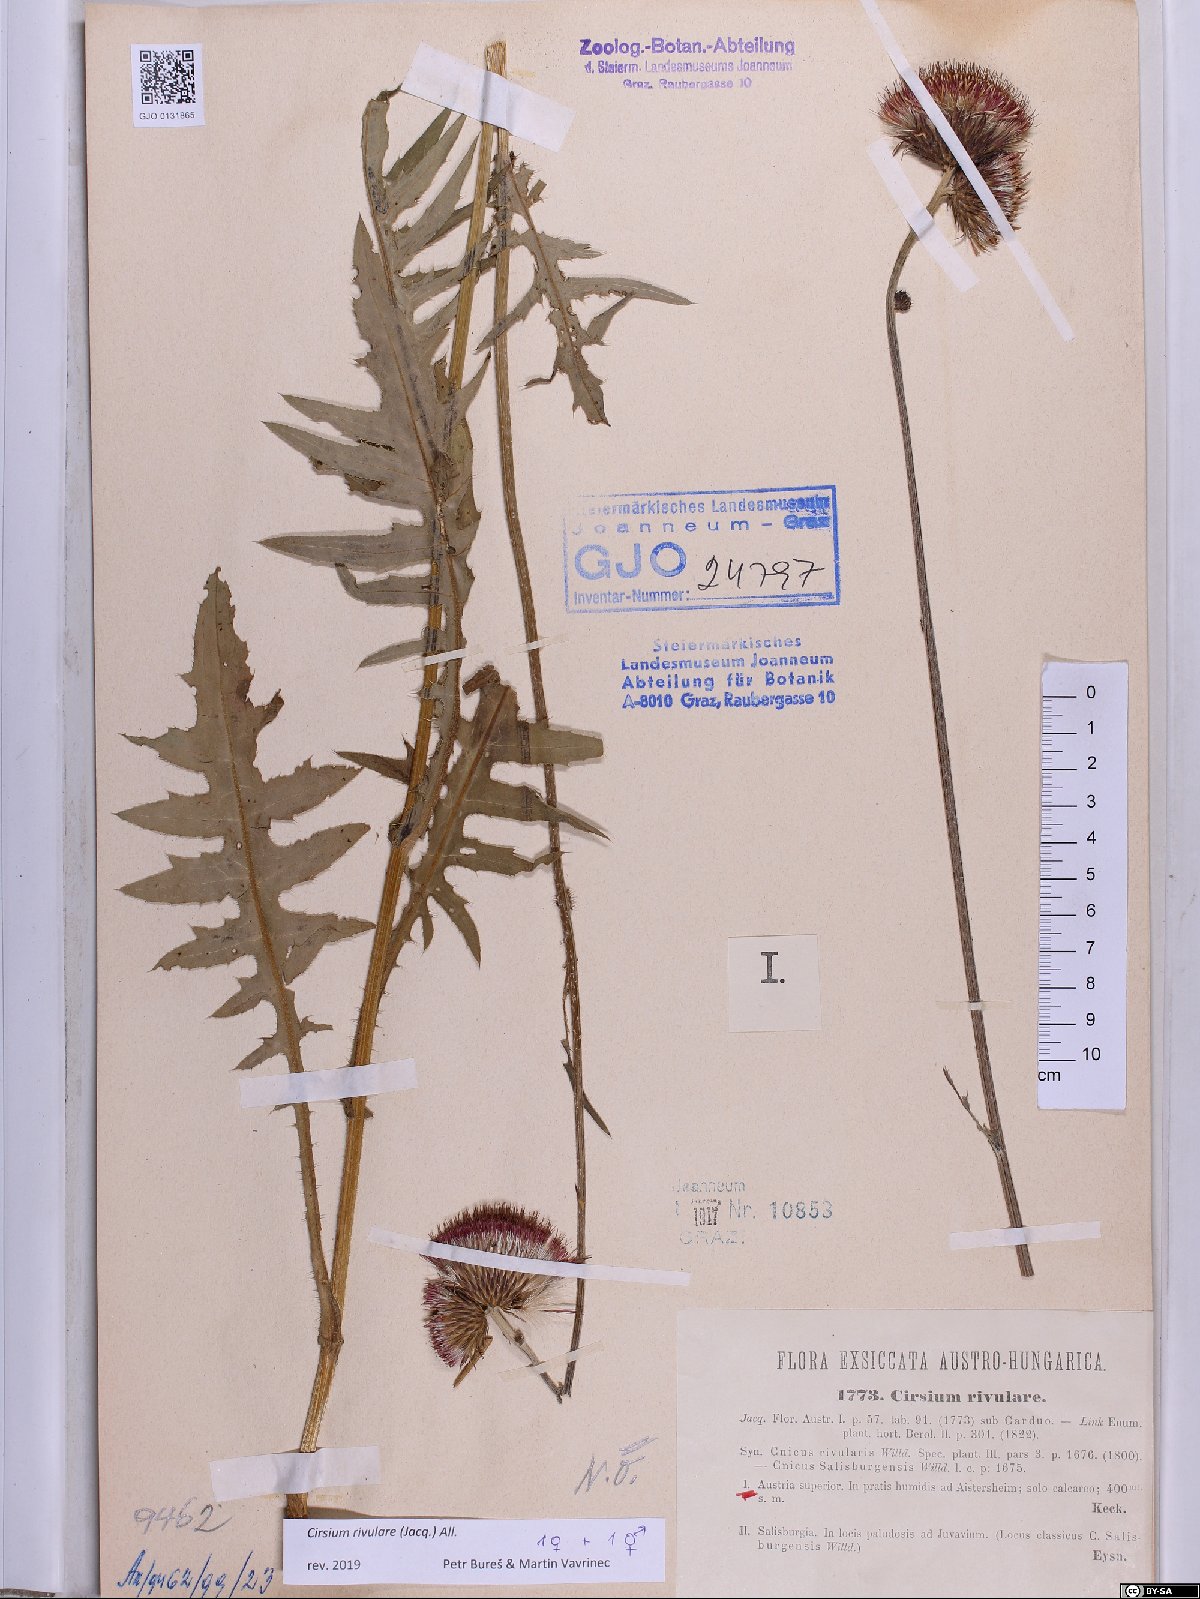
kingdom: Plantae
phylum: Tracheophyta
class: Magnoliopsida
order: Asterales
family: Asteraceae
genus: Cirsium
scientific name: Cirsium rivulare
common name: Brook thistle
